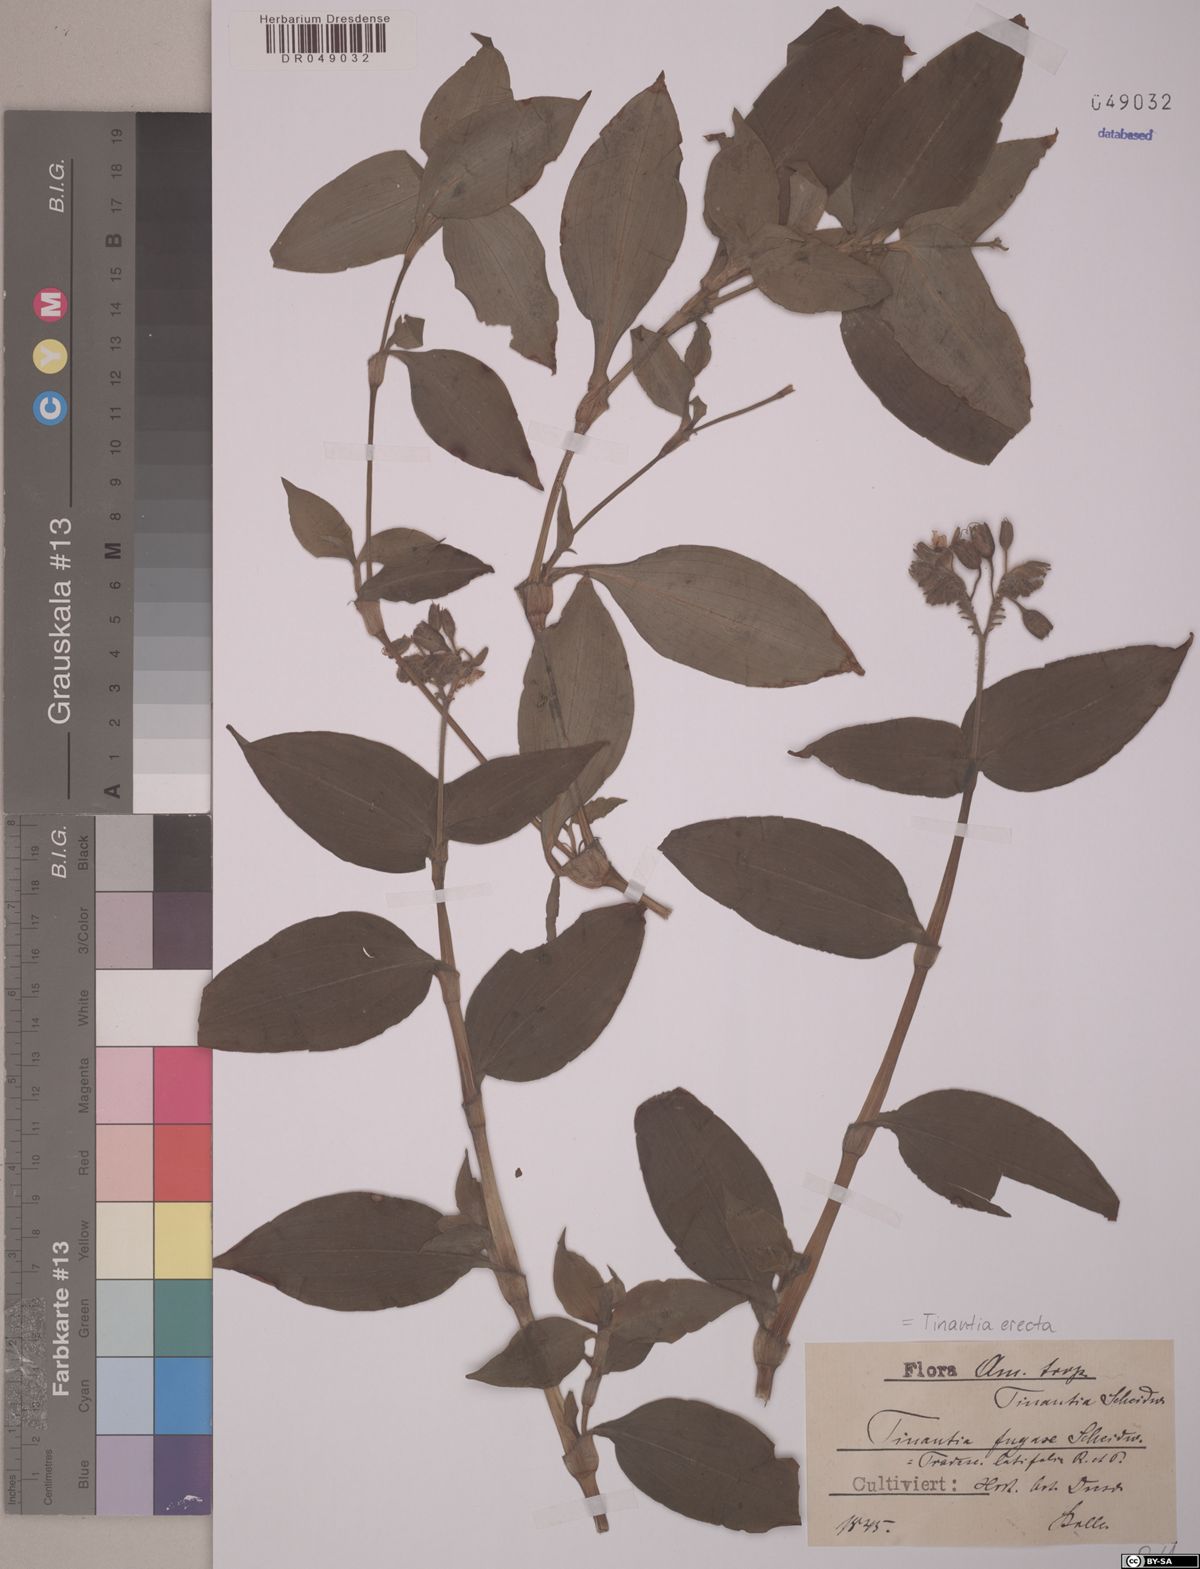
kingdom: Plantae
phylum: Tracheophyta
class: Liliopsida
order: Commelinales
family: Commelinaceae
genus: Tinantia
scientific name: Tinantia erecta
